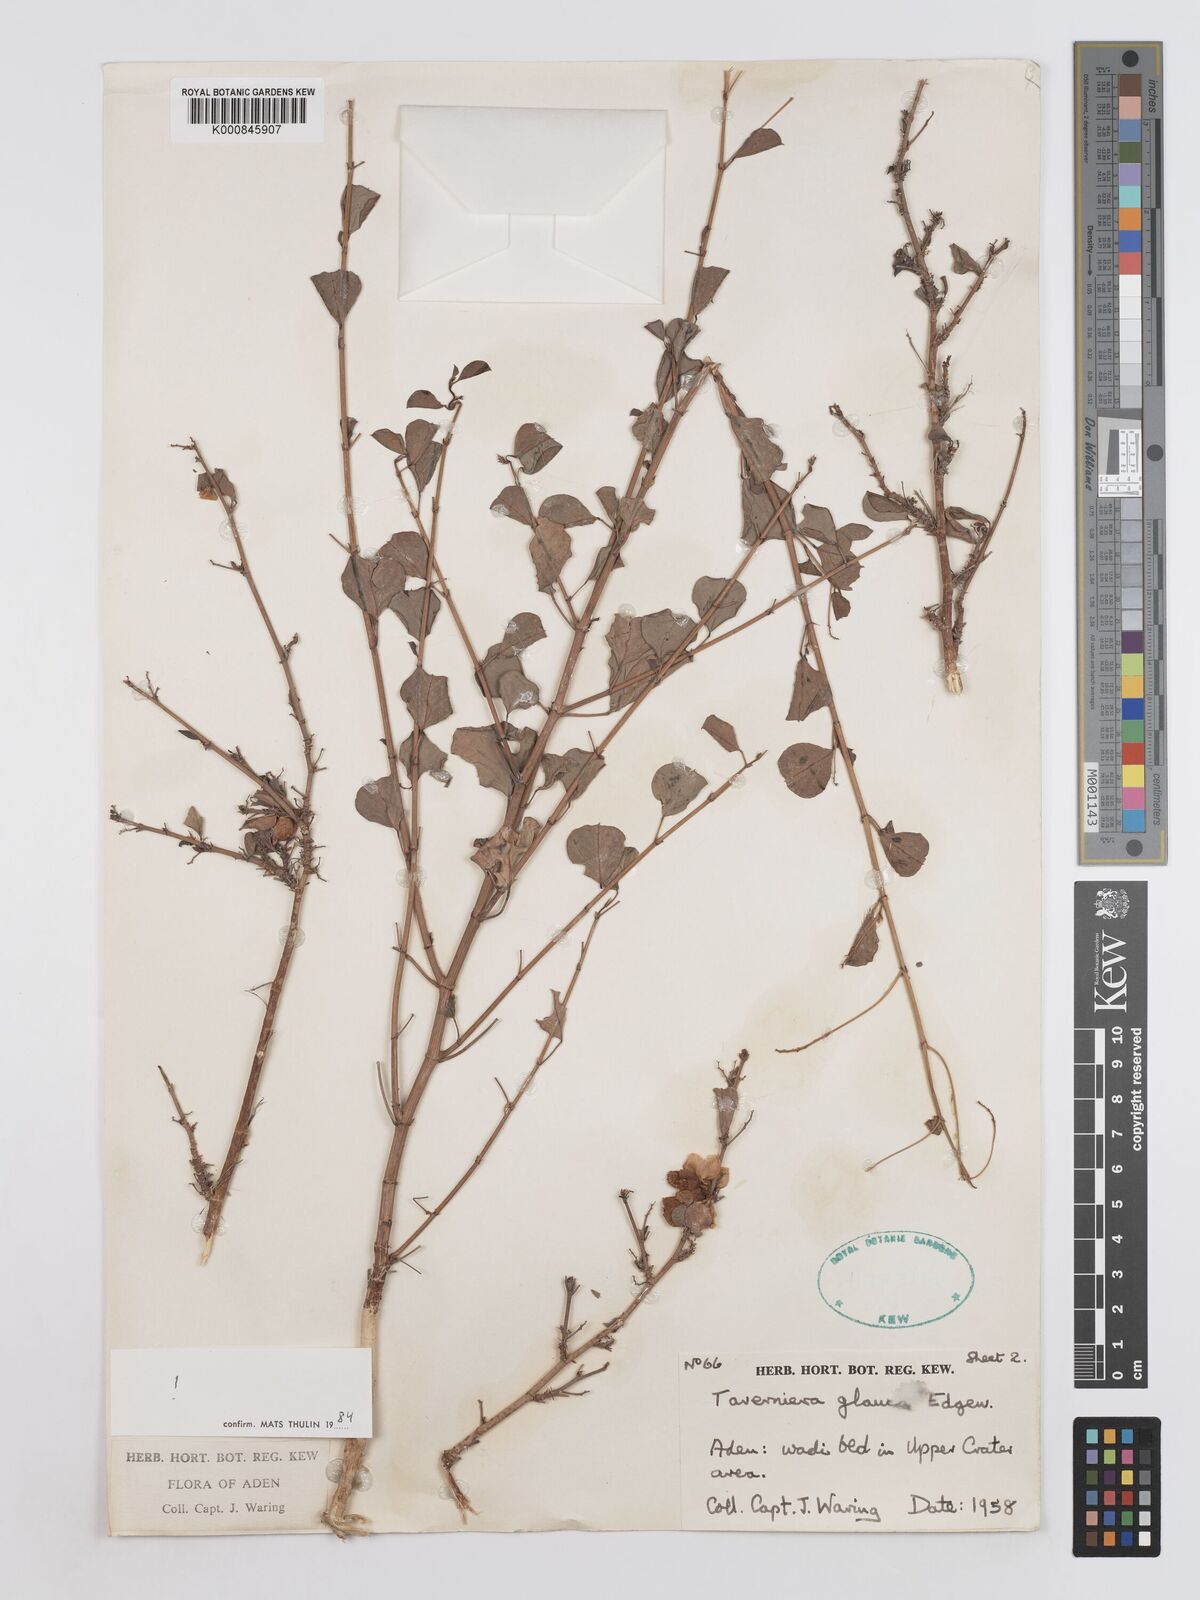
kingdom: Plantae
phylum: Tracheophyta
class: Magnoliopsida
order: Fabales
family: Fabaceae
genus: Taverniera
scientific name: Taverniera glauca
